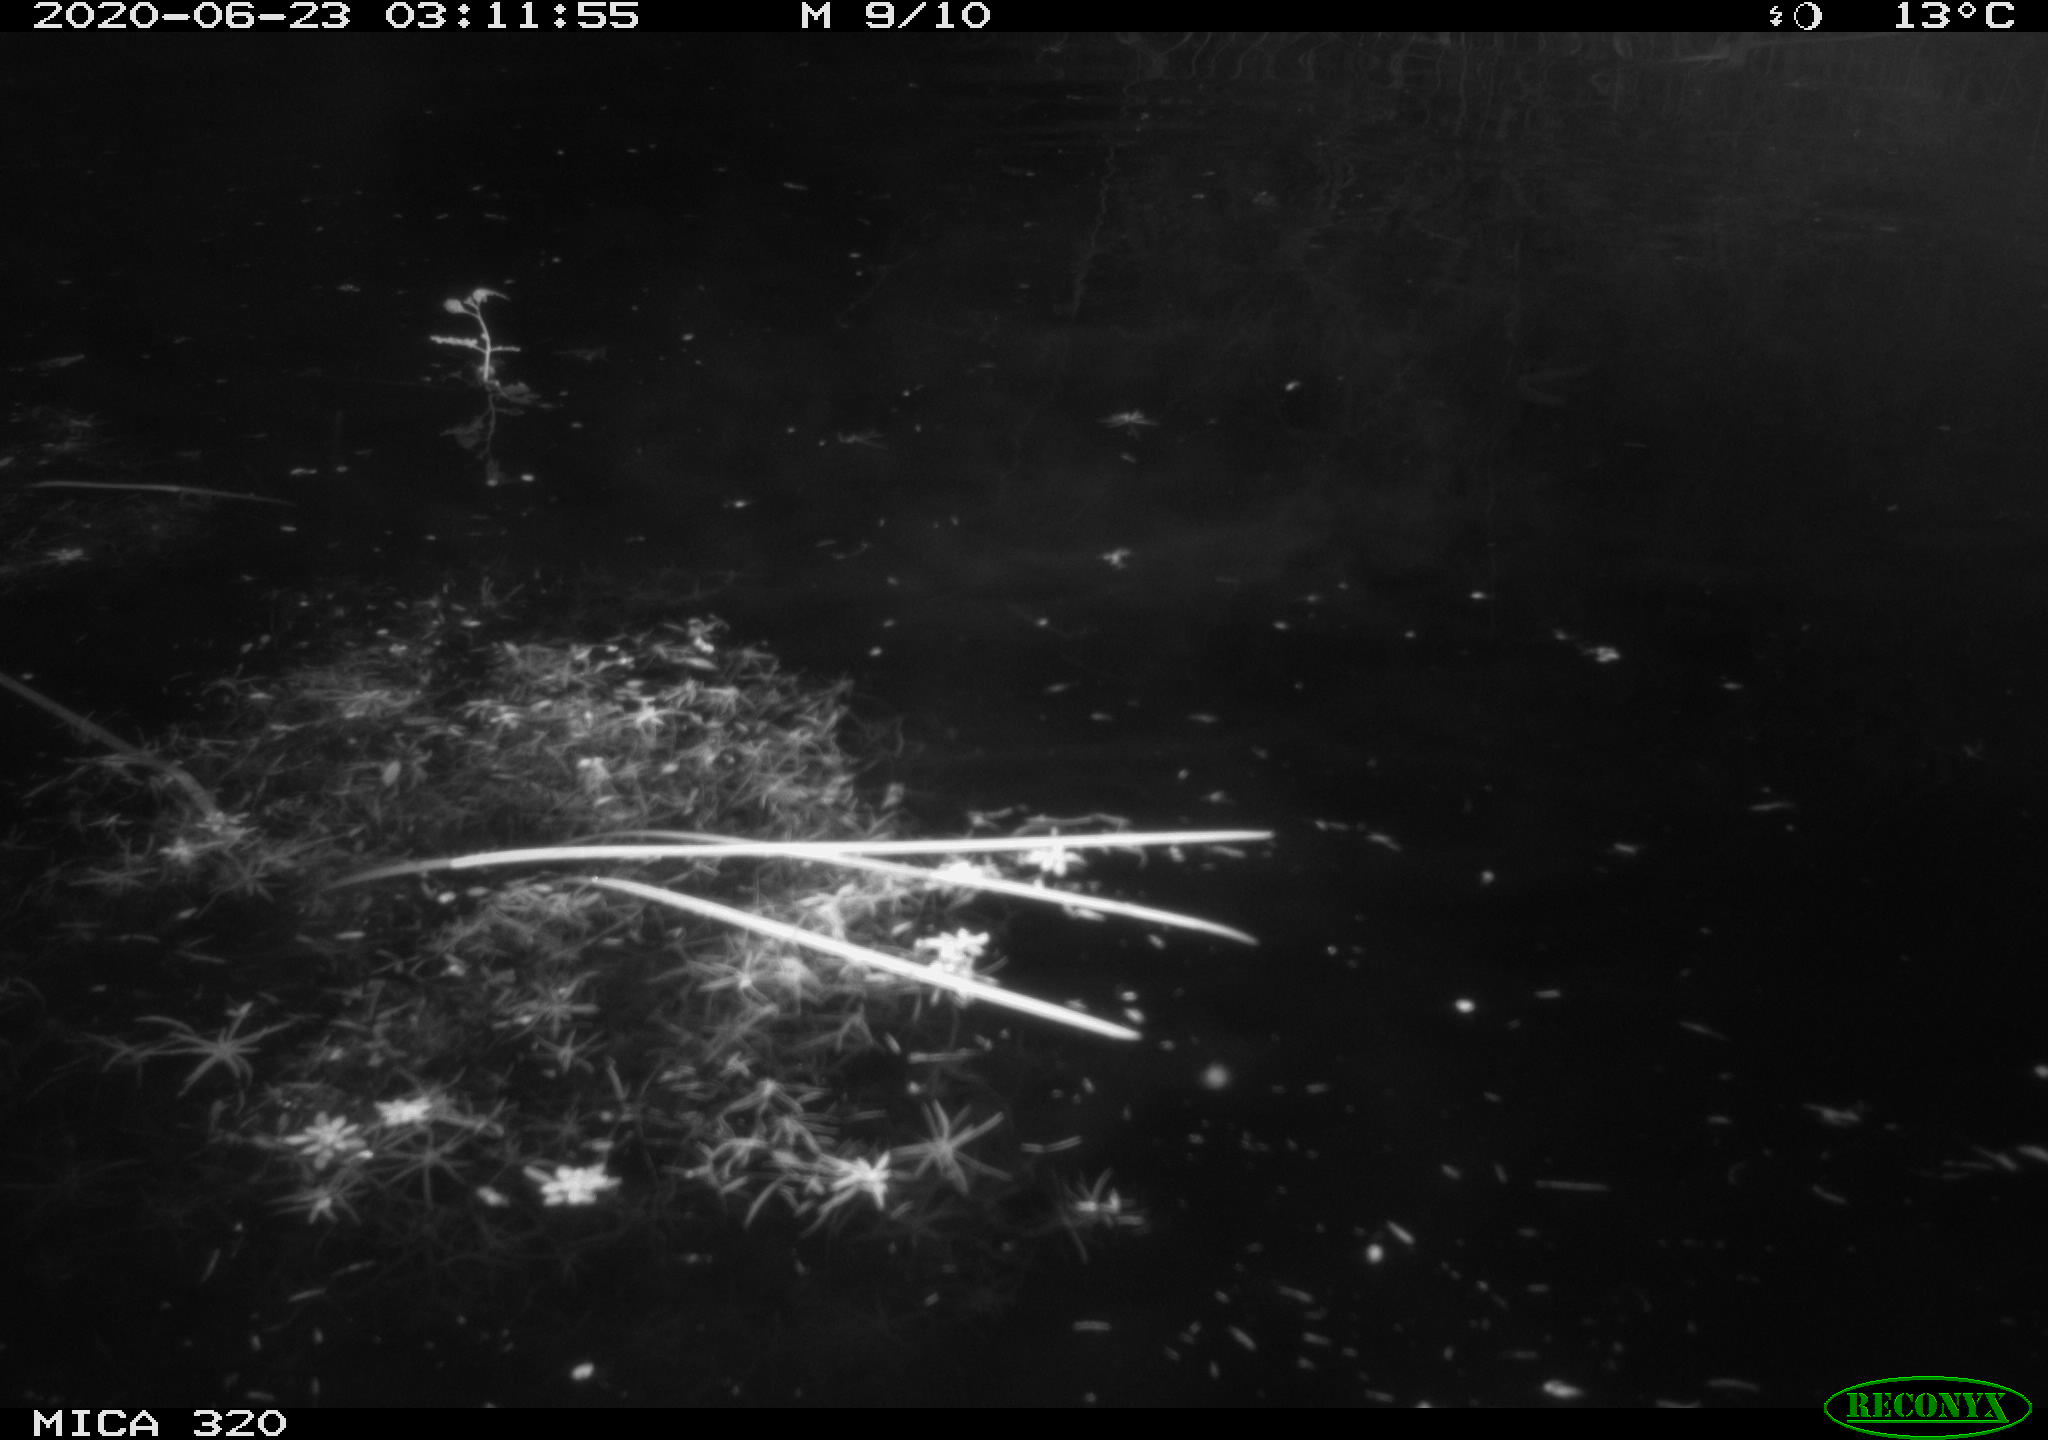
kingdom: Animalia
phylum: Chordata
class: Aves
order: Anseriformes
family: Anatidae
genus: Anas
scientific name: Anas platyrhynchos
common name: Mallard
